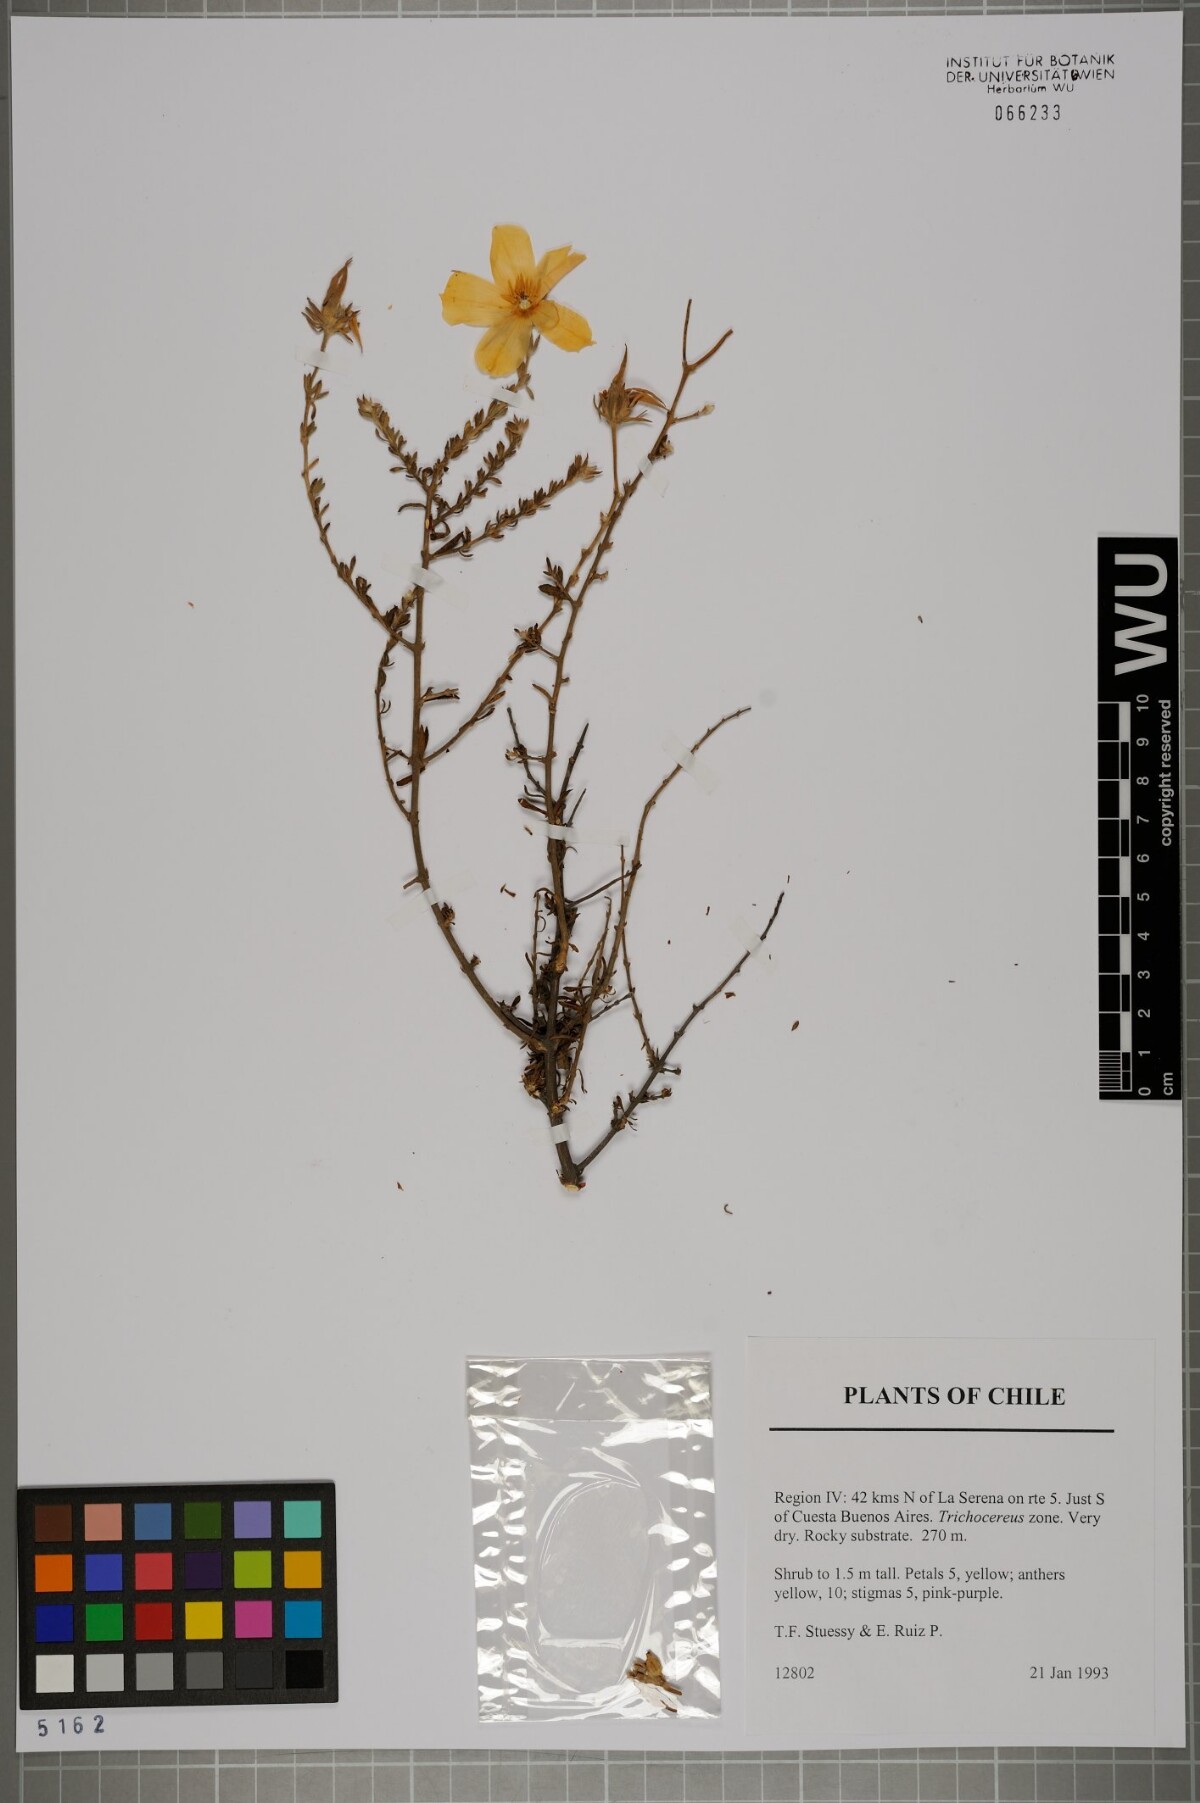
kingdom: Plantae
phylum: Tracheophyta
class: Magnoliopsida
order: Geraniales
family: Vivianiaceae
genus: Balbisia
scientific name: Balbisia
